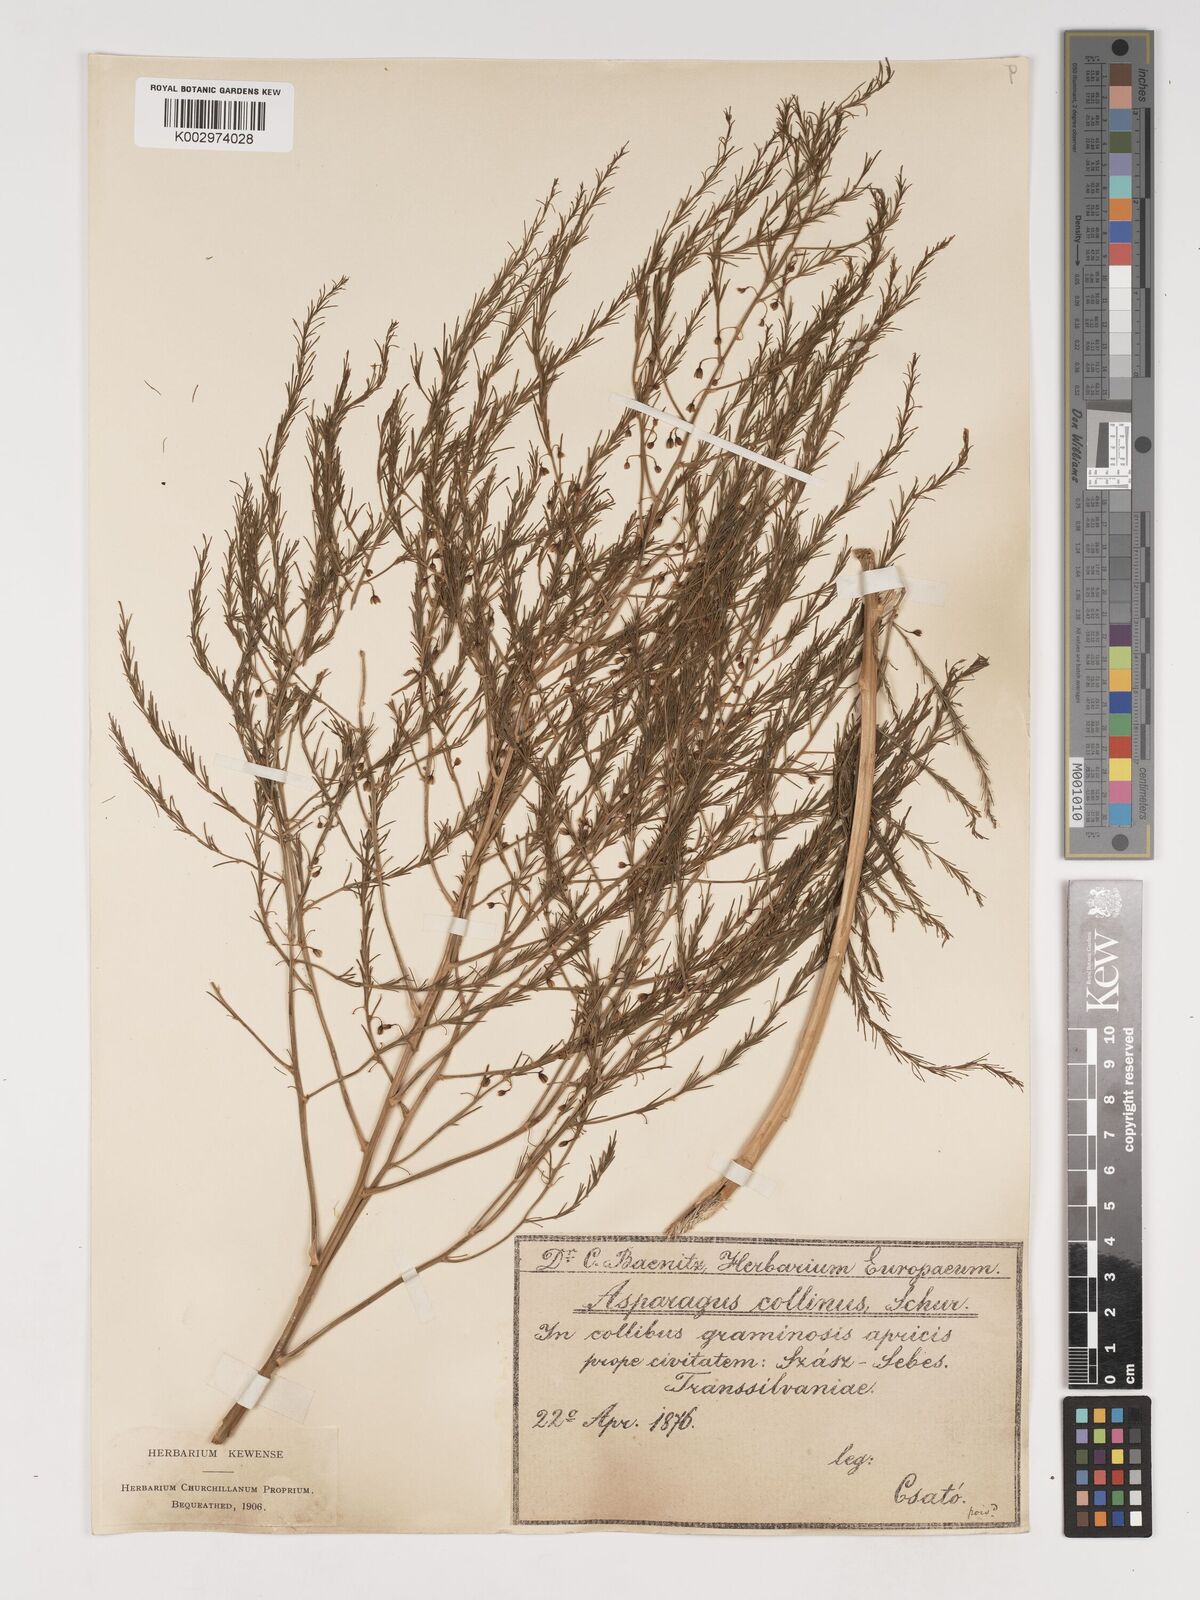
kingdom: Plantae
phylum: Tracheophyta
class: Liliopsida
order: Asparagales
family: Asparagaceae
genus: Asparagus
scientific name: Asparagus
